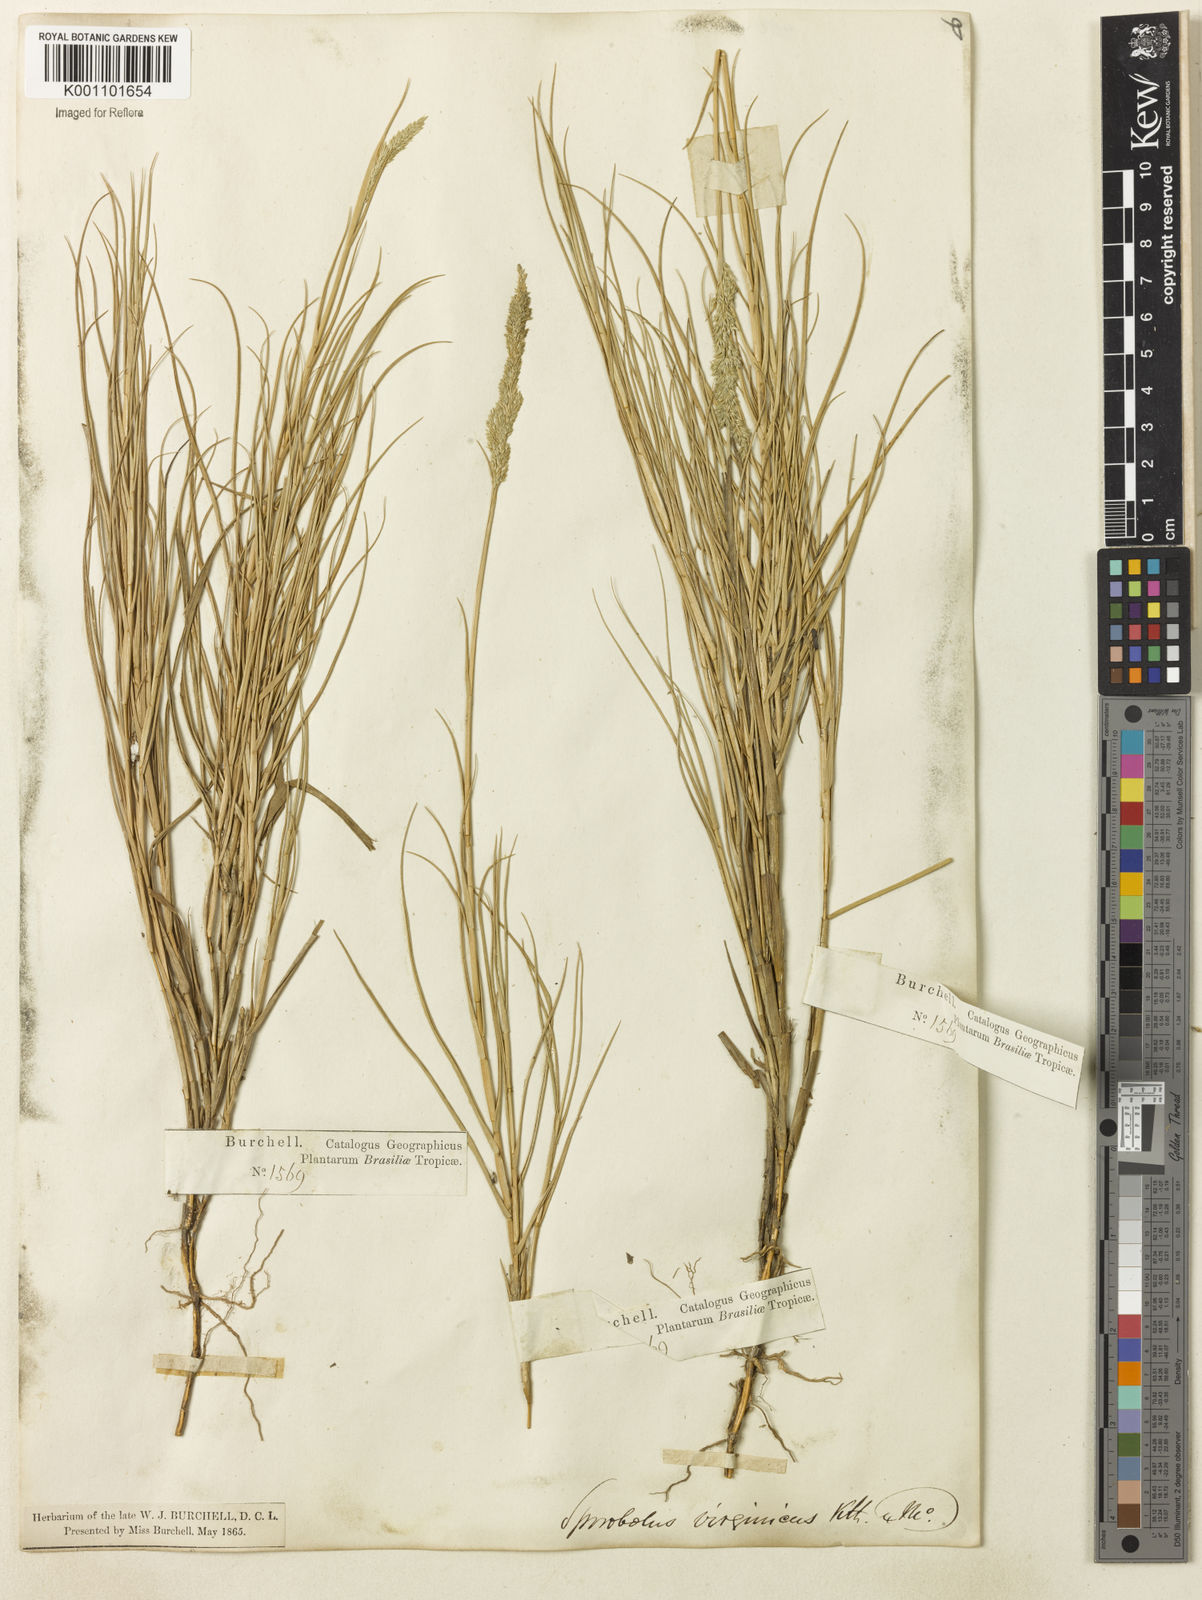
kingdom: Plantae
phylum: Tracheophyta
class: Liliopsida
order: Poales
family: Poaceae
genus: Sporobolus
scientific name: Sporobolus virginicus
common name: Beach dropseed
